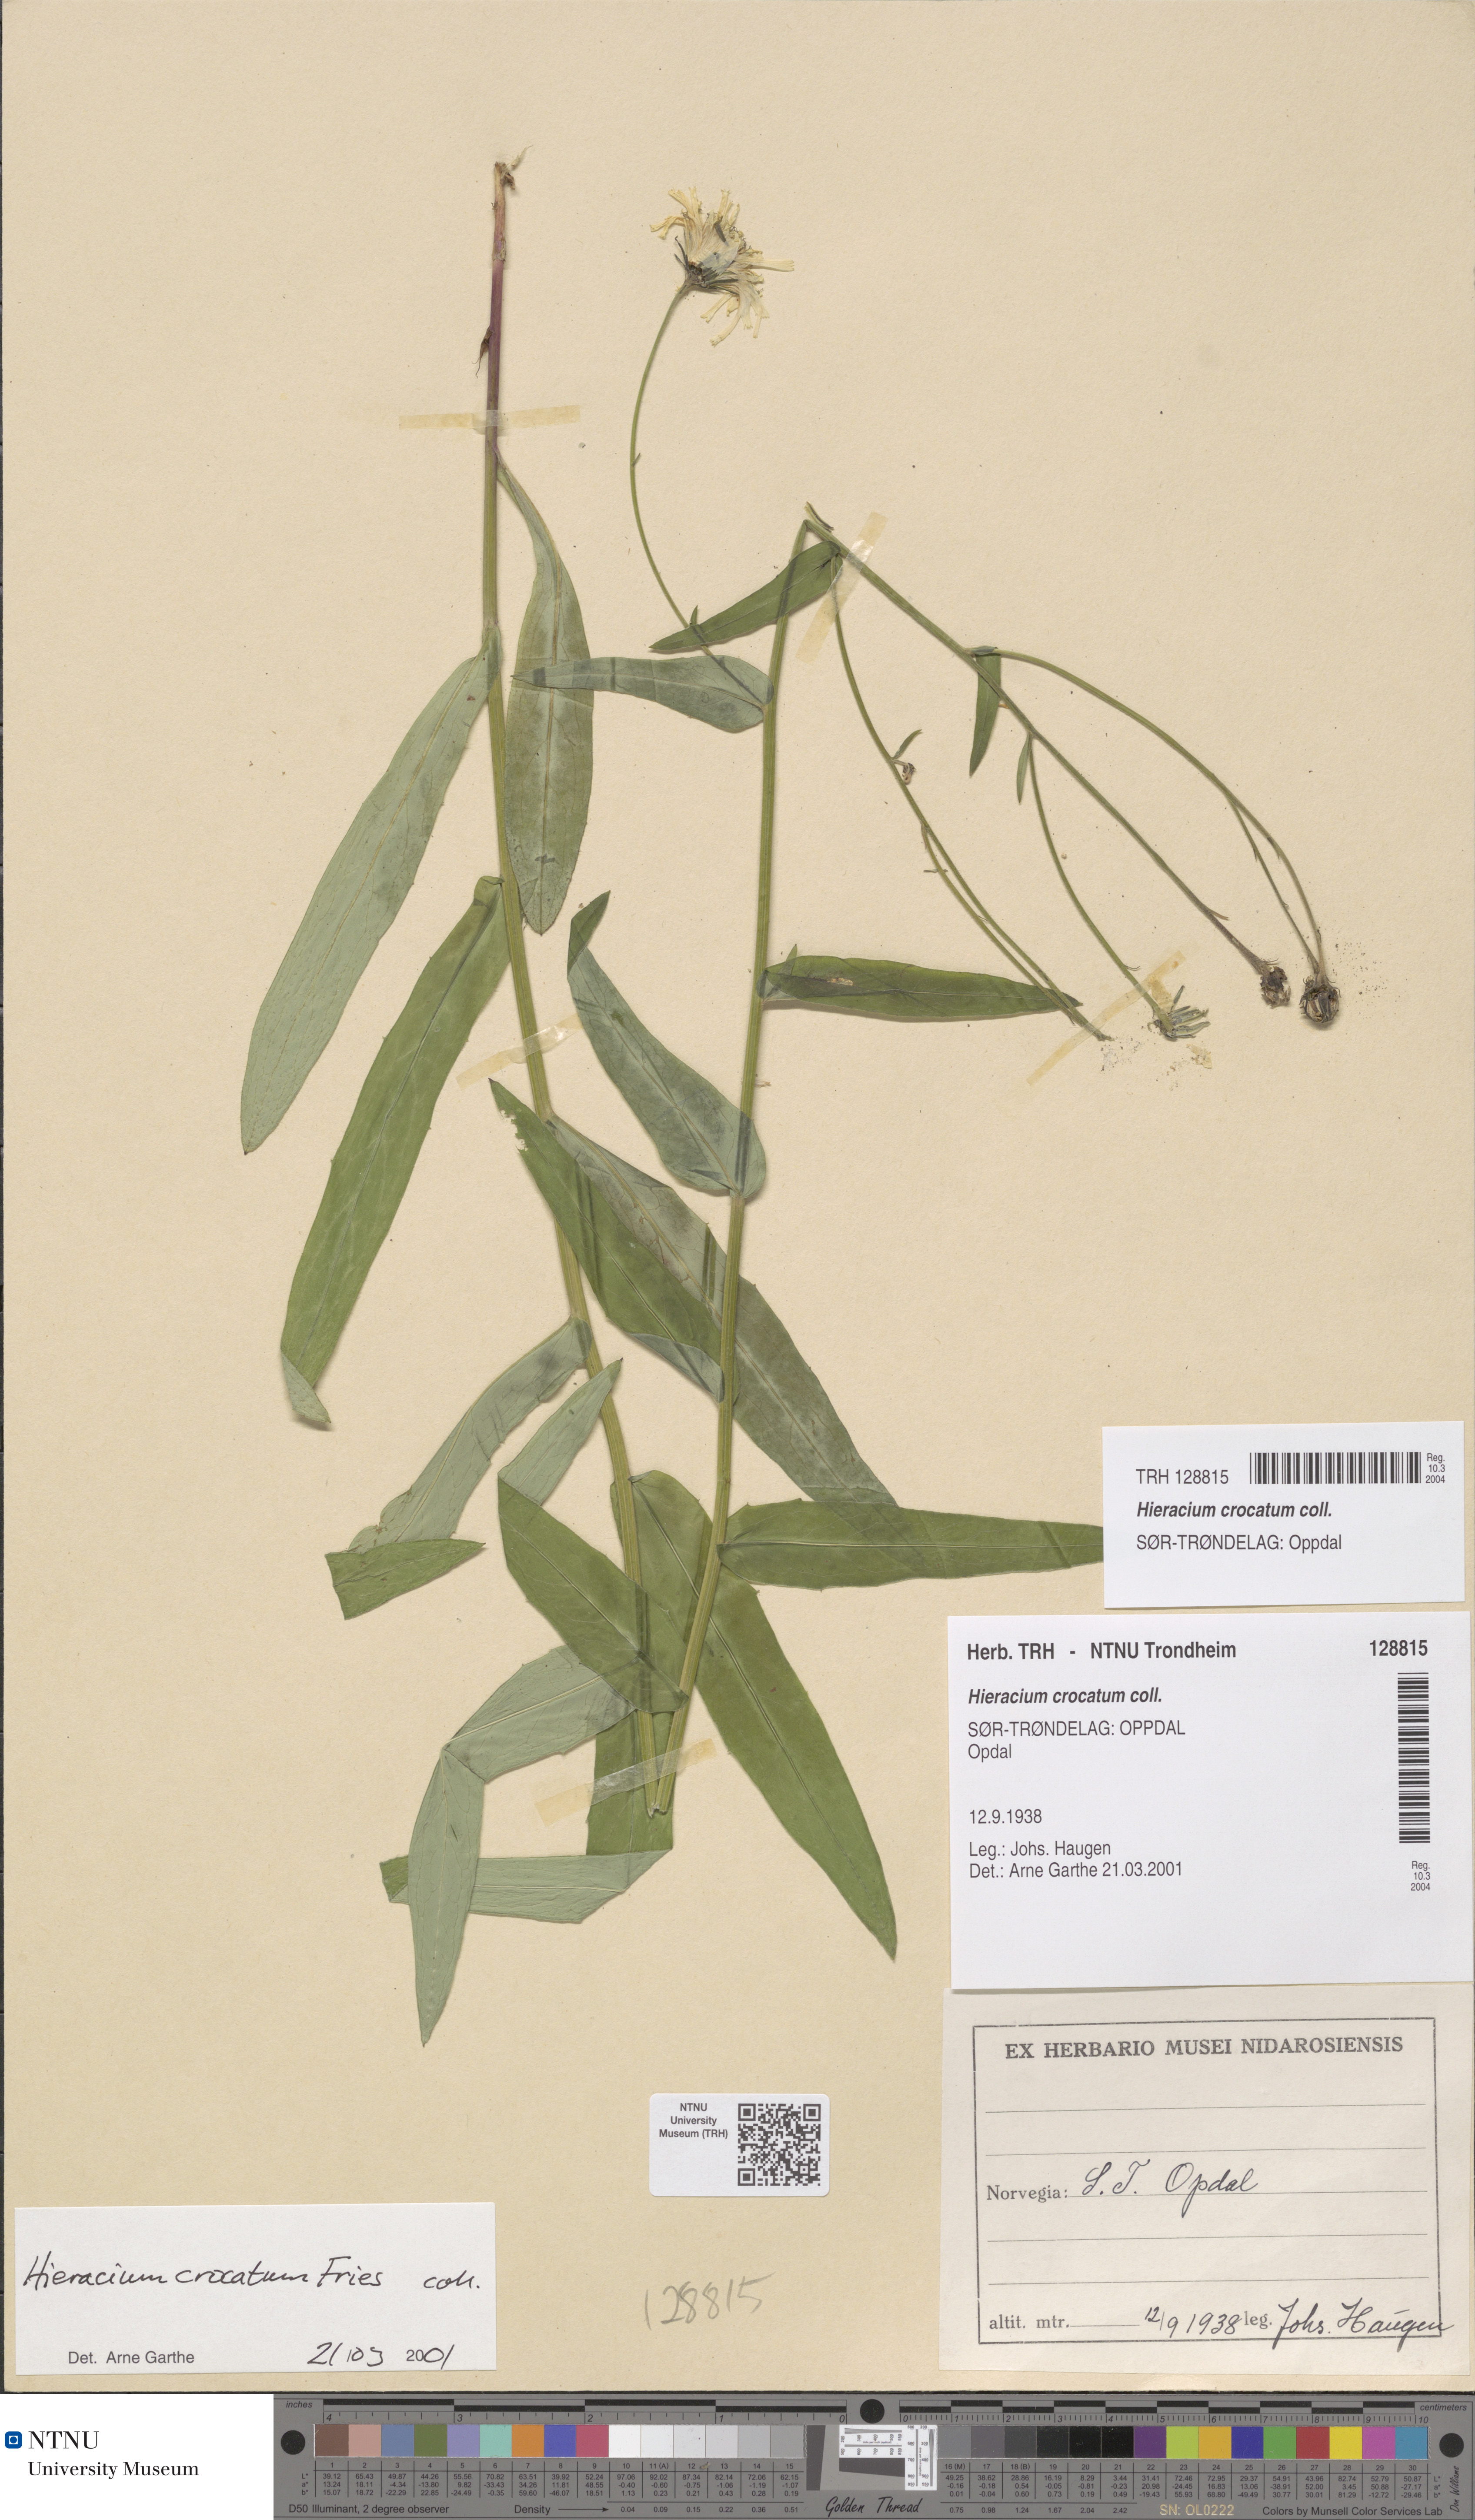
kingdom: Plantae
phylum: Tracheophyta
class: Magnoliopsida
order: Asterales
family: Asteraceae
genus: Hieracium
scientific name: Hieracium crocatum
